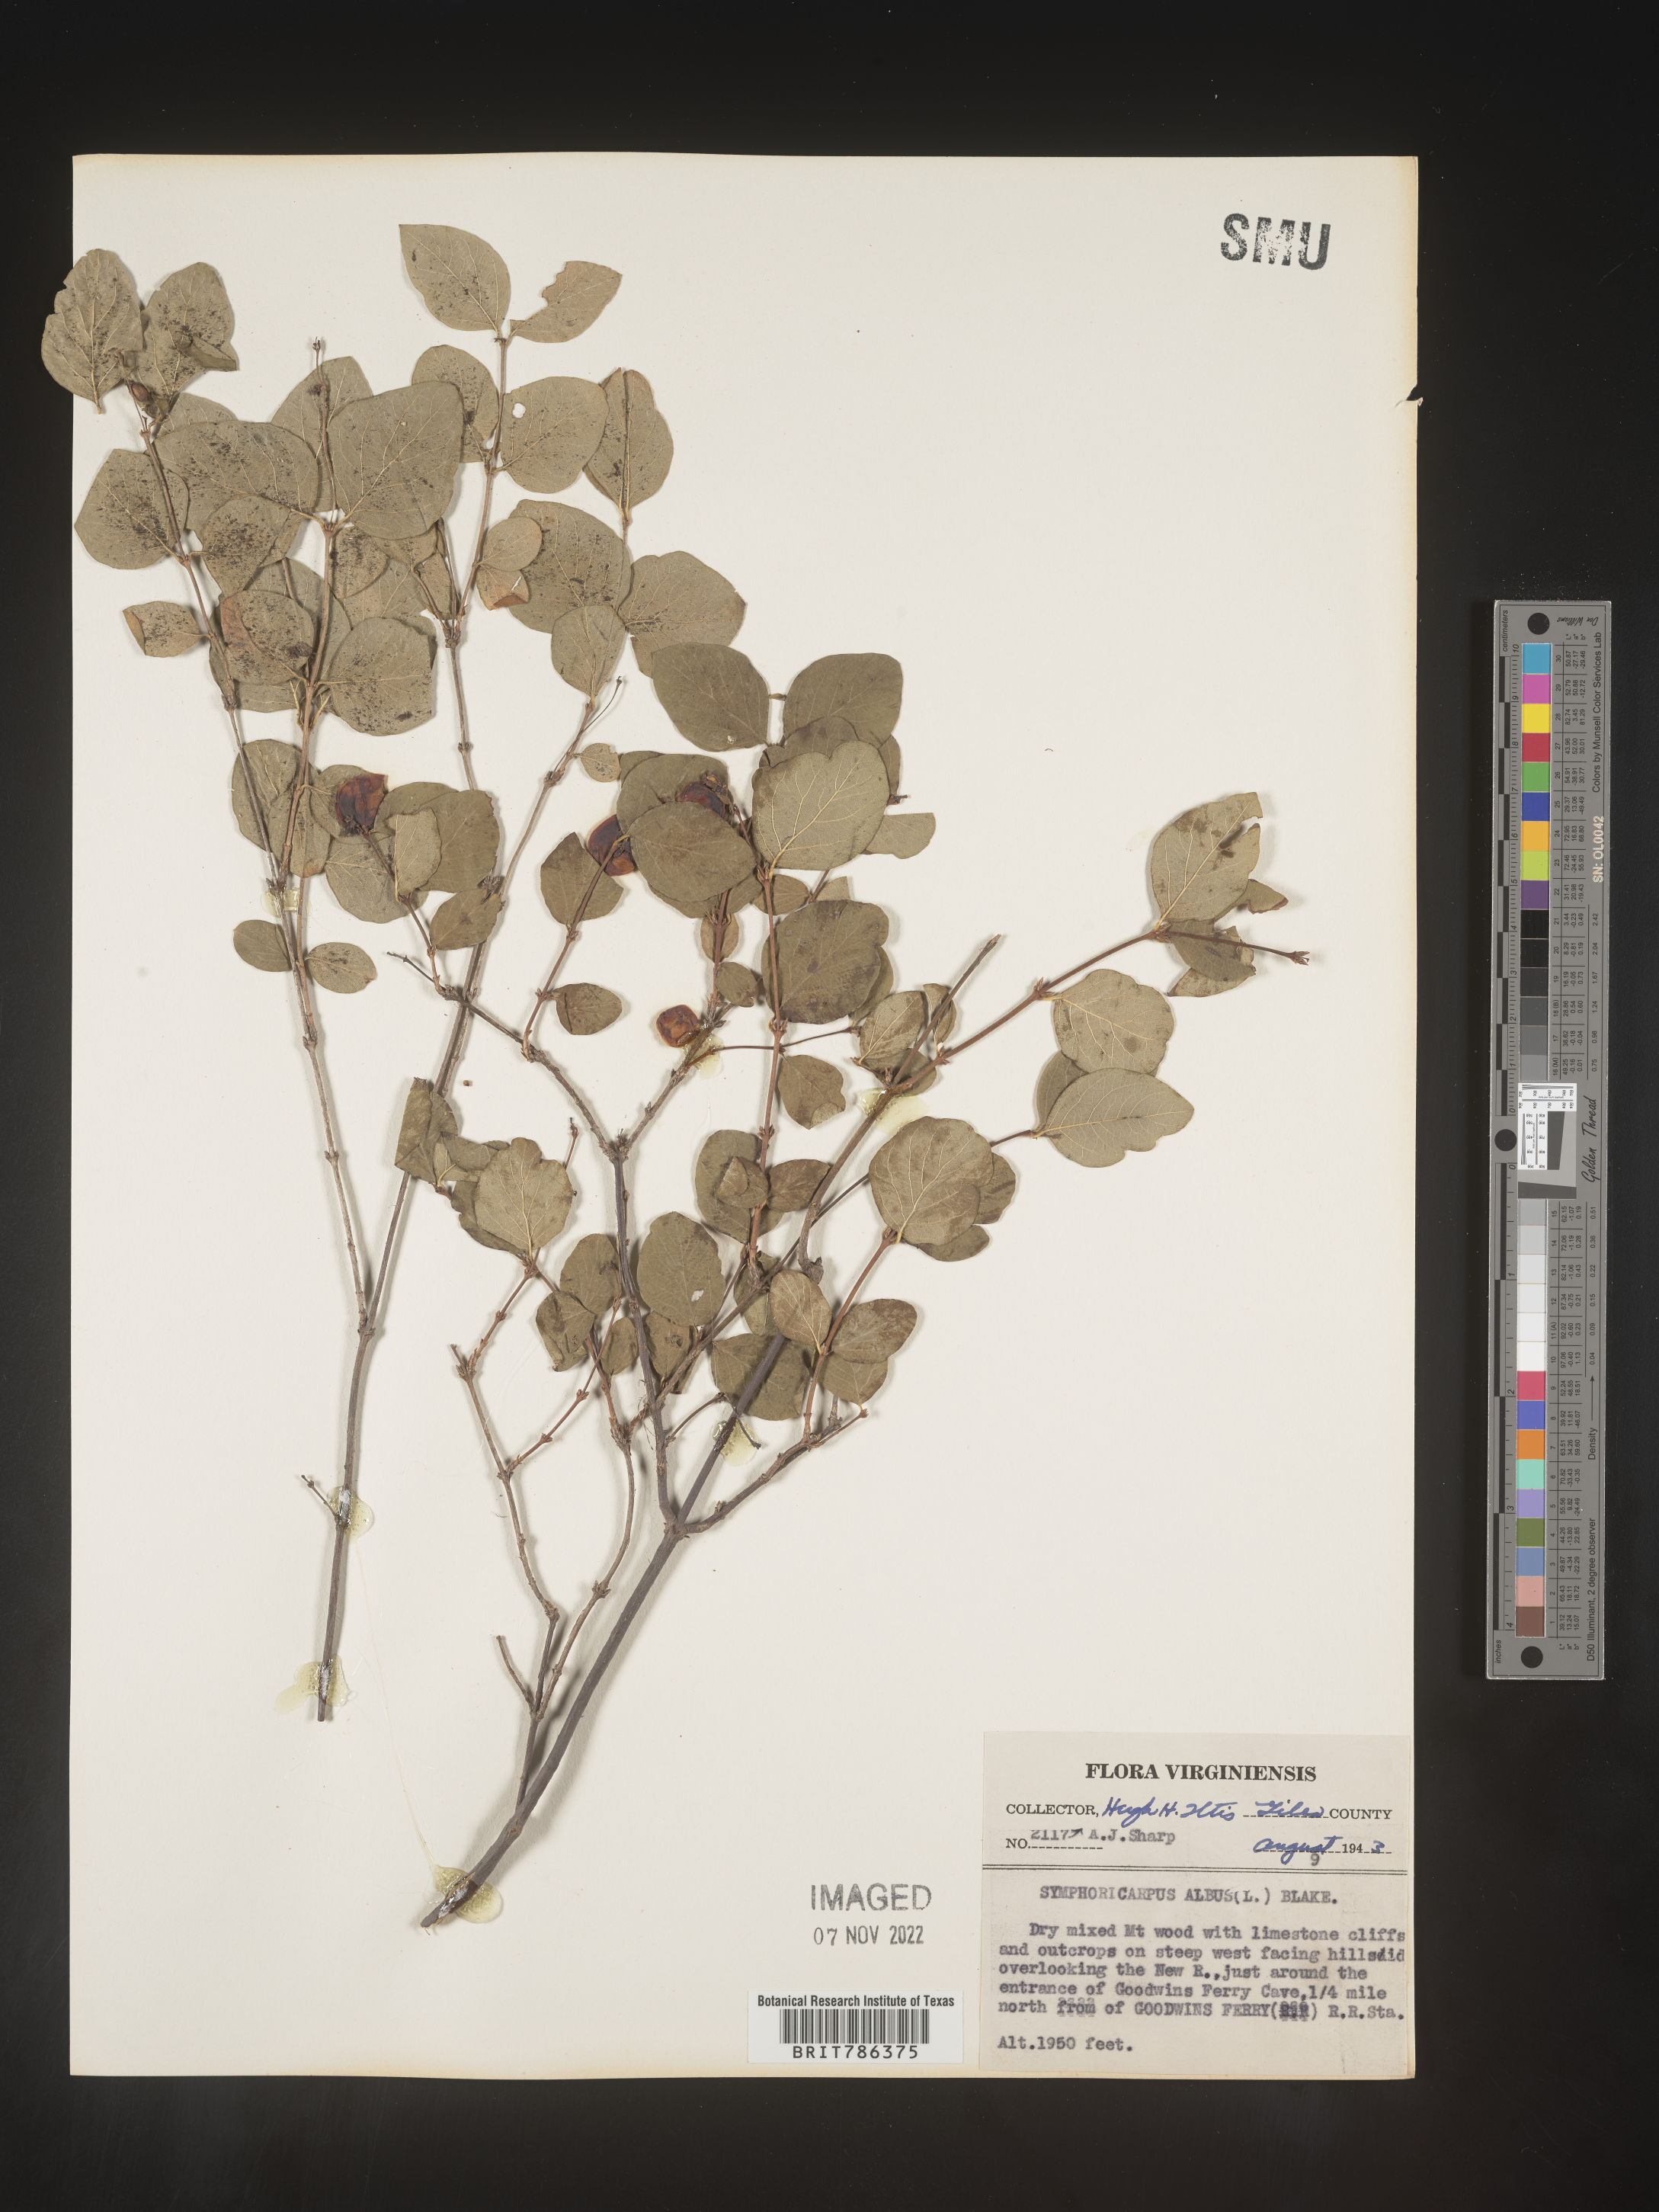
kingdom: Plantae
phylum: Tracheophyta
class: Magnoliopsida
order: Dipsacales
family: Caprifoliaceae
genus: Symphoricarpos
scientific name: Symphoricarpos albus
